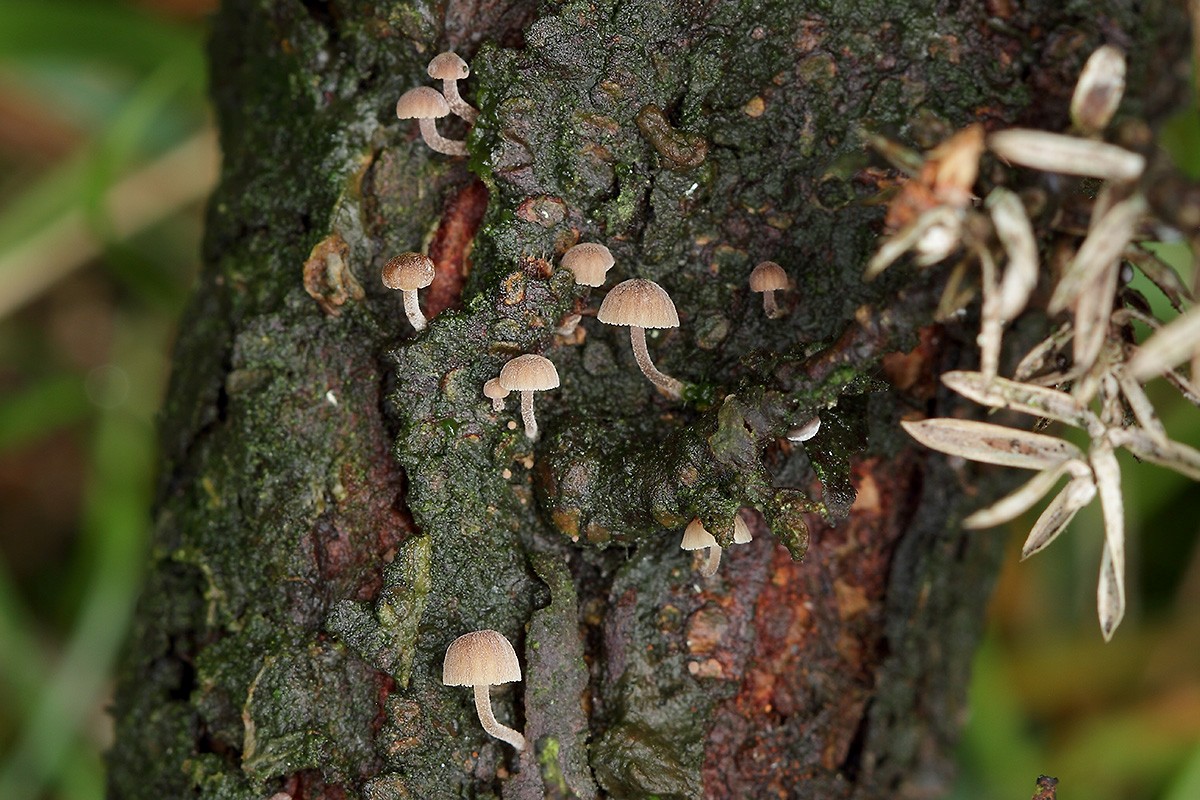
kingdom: Fungi
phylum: Basidiomycota
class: Agaricomycetes
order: Agaricales
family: Mycenaceae
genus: Mycena
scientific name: Mycena juniperina
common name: ene-Huesvamp
